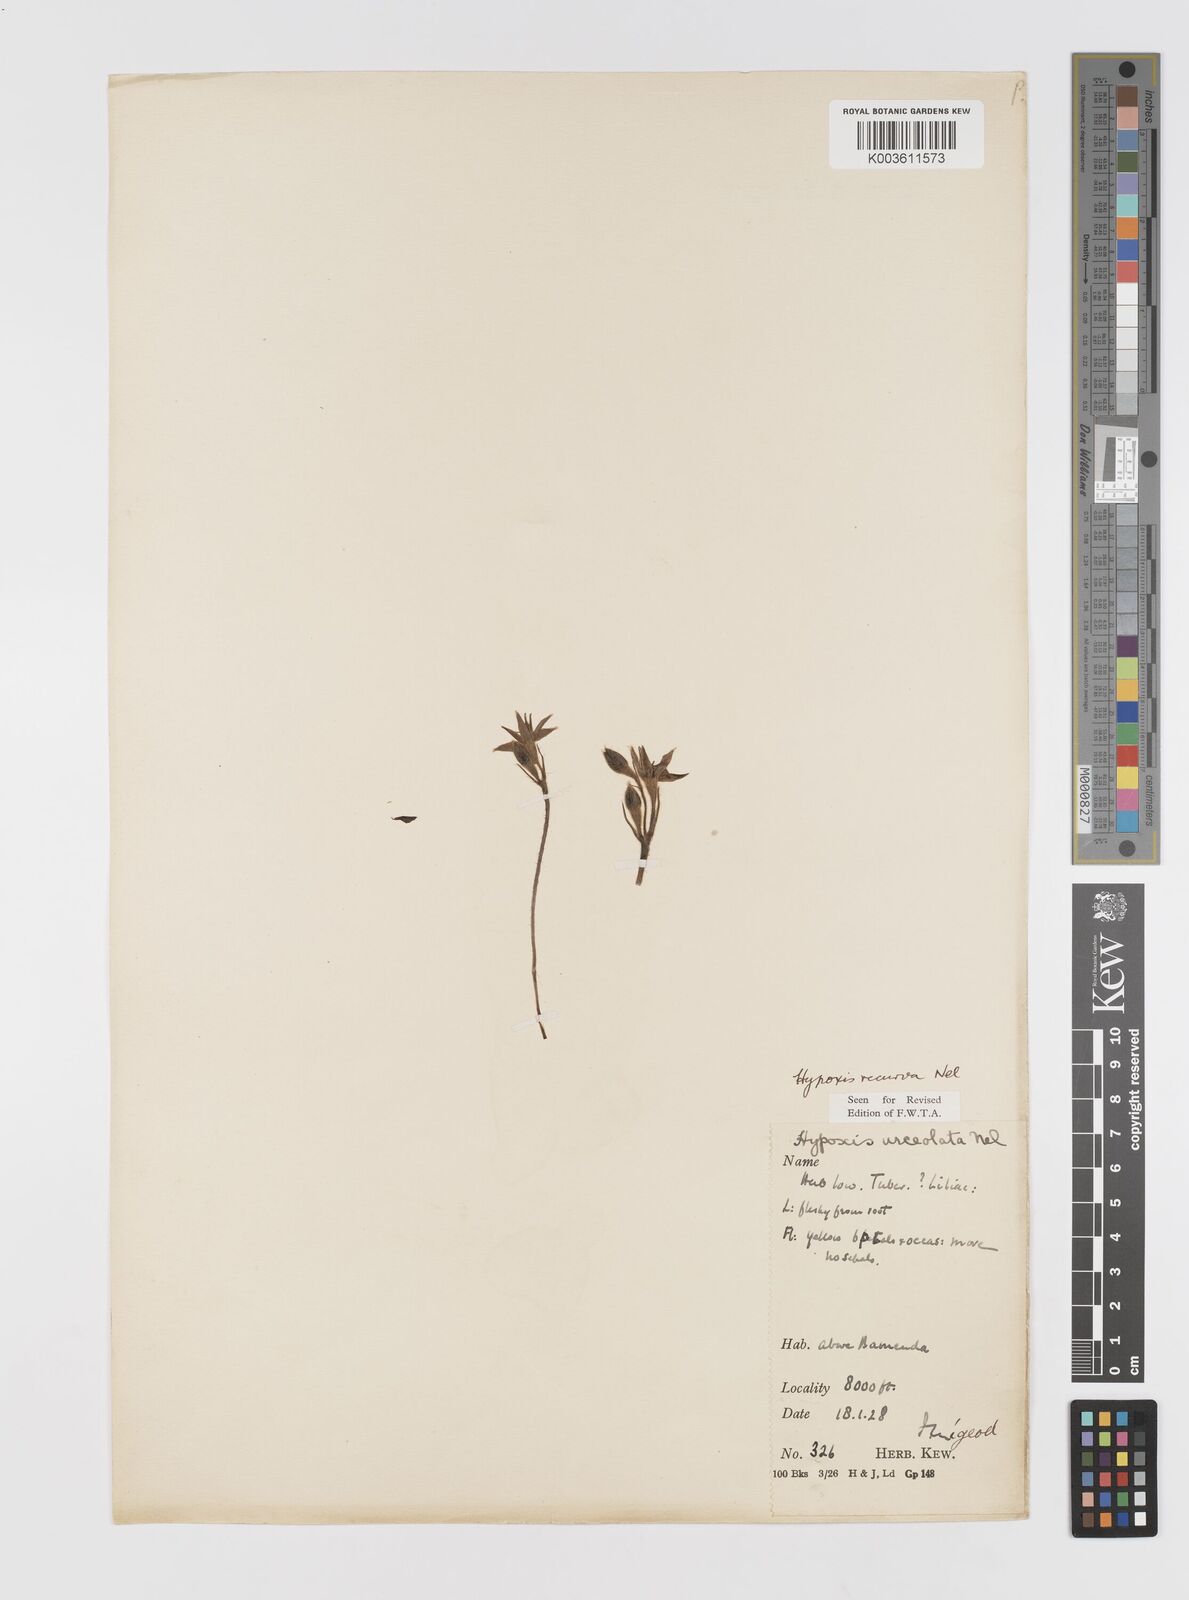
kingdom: Plantae
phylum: Tracheophyta
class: Liliopsida
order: Asparagales
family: Hypoxidaceae
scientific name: Hypoxidaceae
